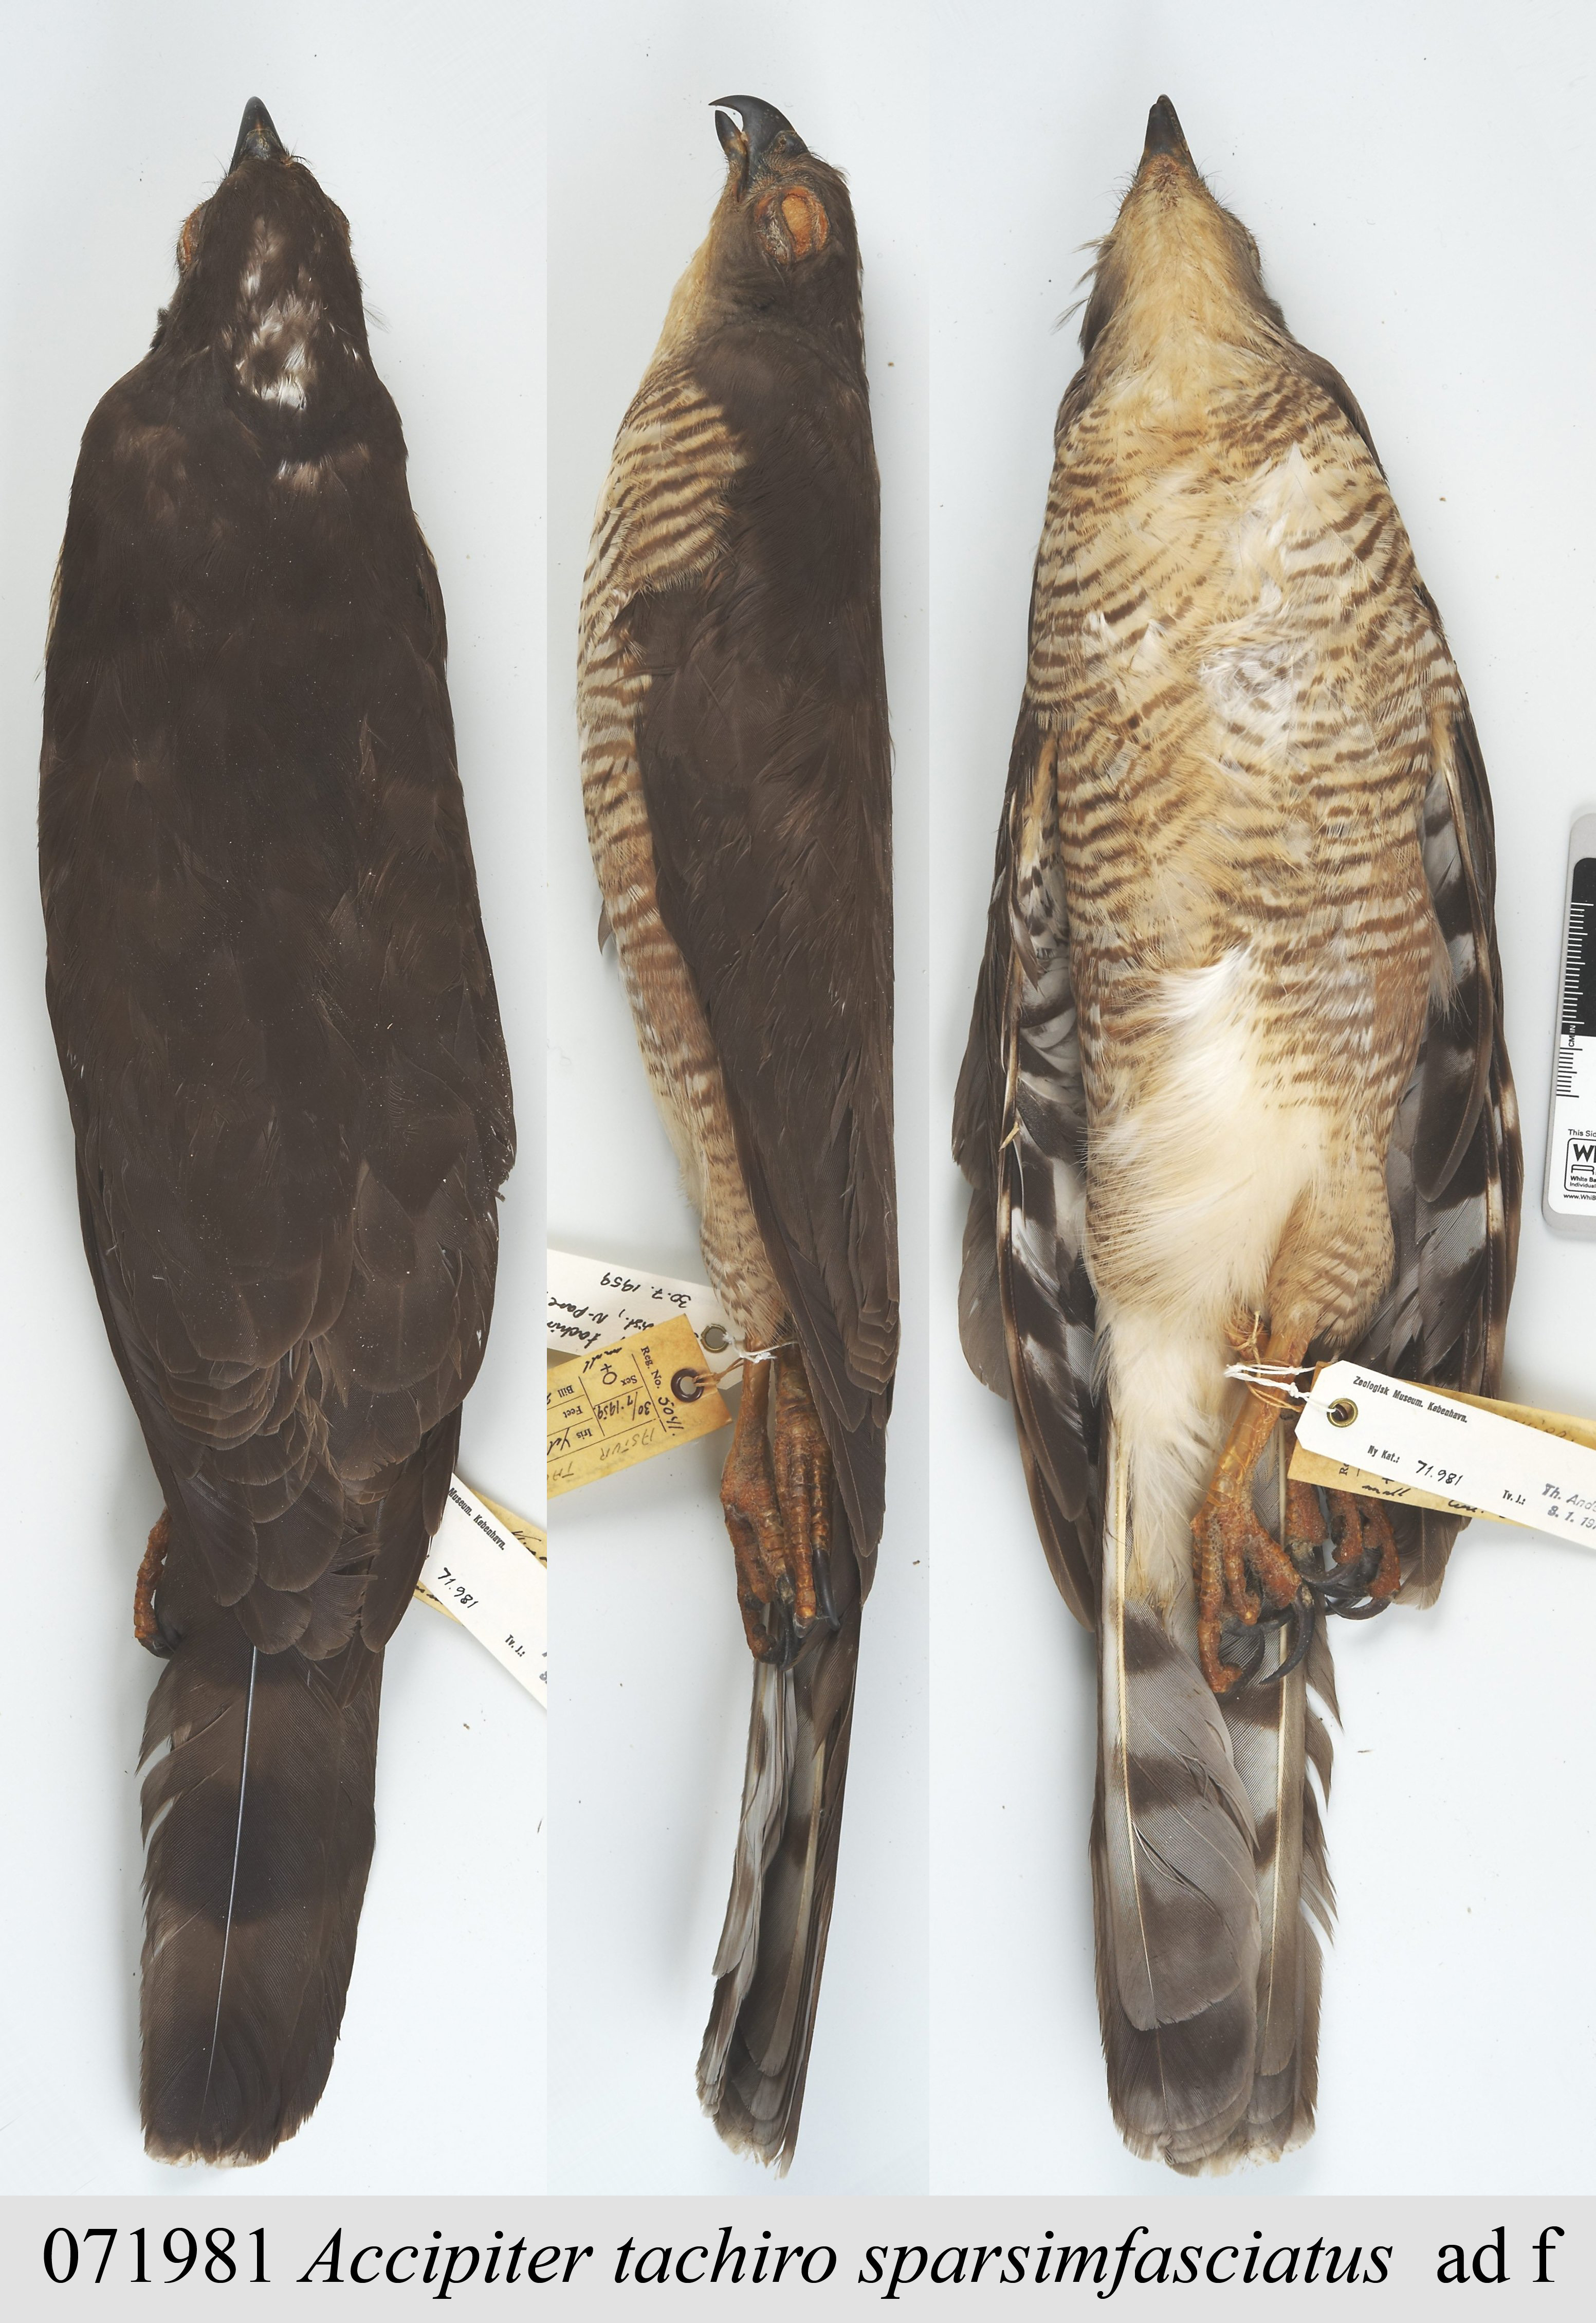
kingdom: Animalia
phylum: Chordata
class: Aves
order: Accipitriformes
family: Accipitridae
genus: Accipiter
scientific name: Accipiter tachiro
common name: African goshawk
